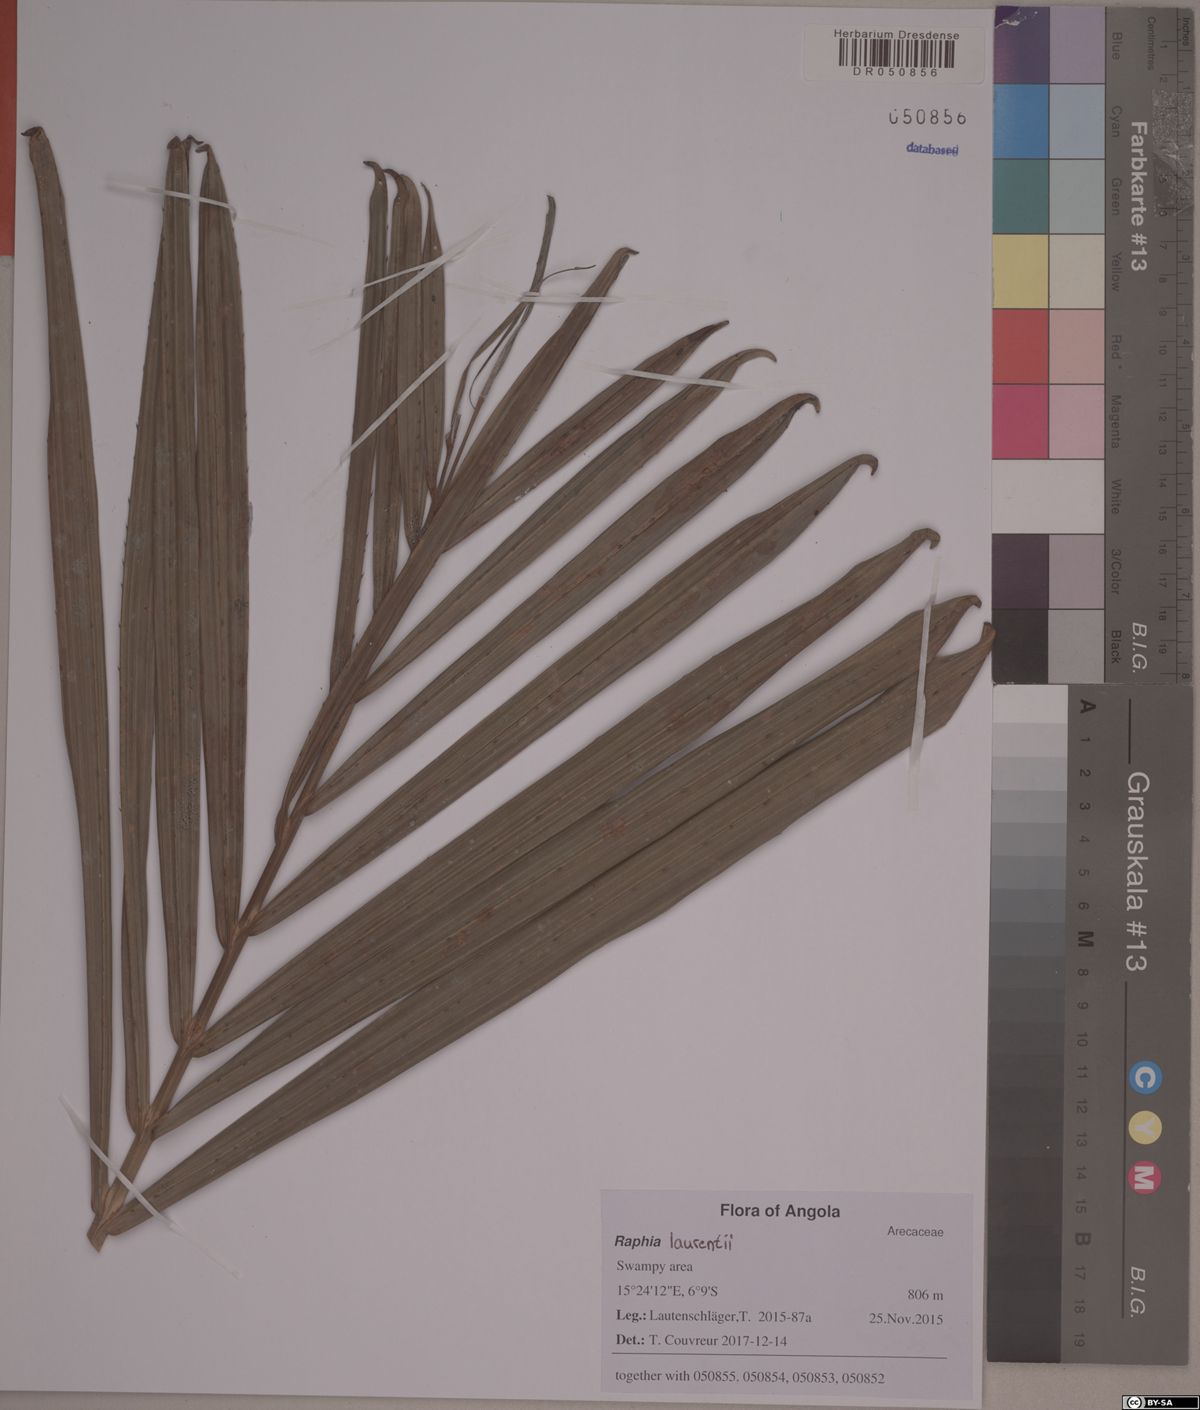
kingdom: Plantae
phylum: Tracheophyta
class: Liliopsida
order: Arecales
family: Arecaceae
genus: Raphia
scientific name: Raphia laurentii
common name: Raphia palm
